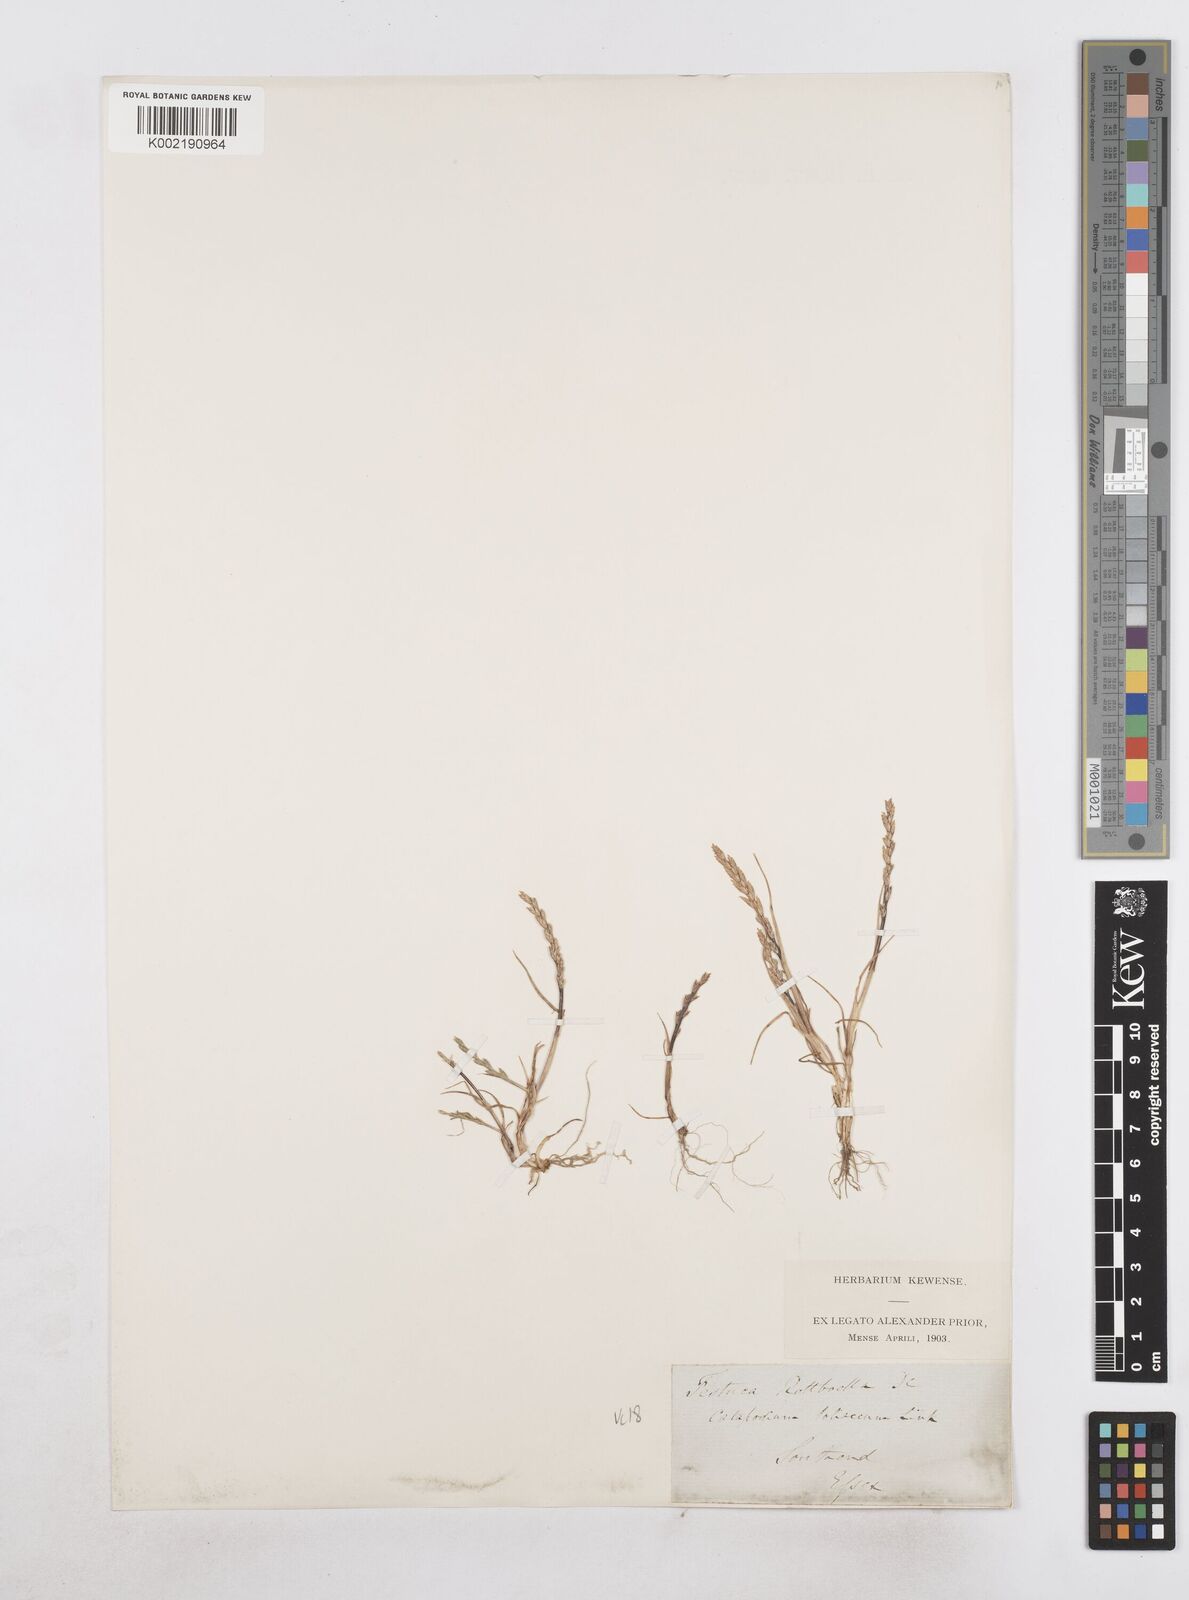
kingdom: Plantae
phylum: Tracheophyta
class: Liliopsida
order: Poales
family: Poaceae
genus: Catapodium
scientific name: Catapodium marinum
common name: Sea fern-grass
